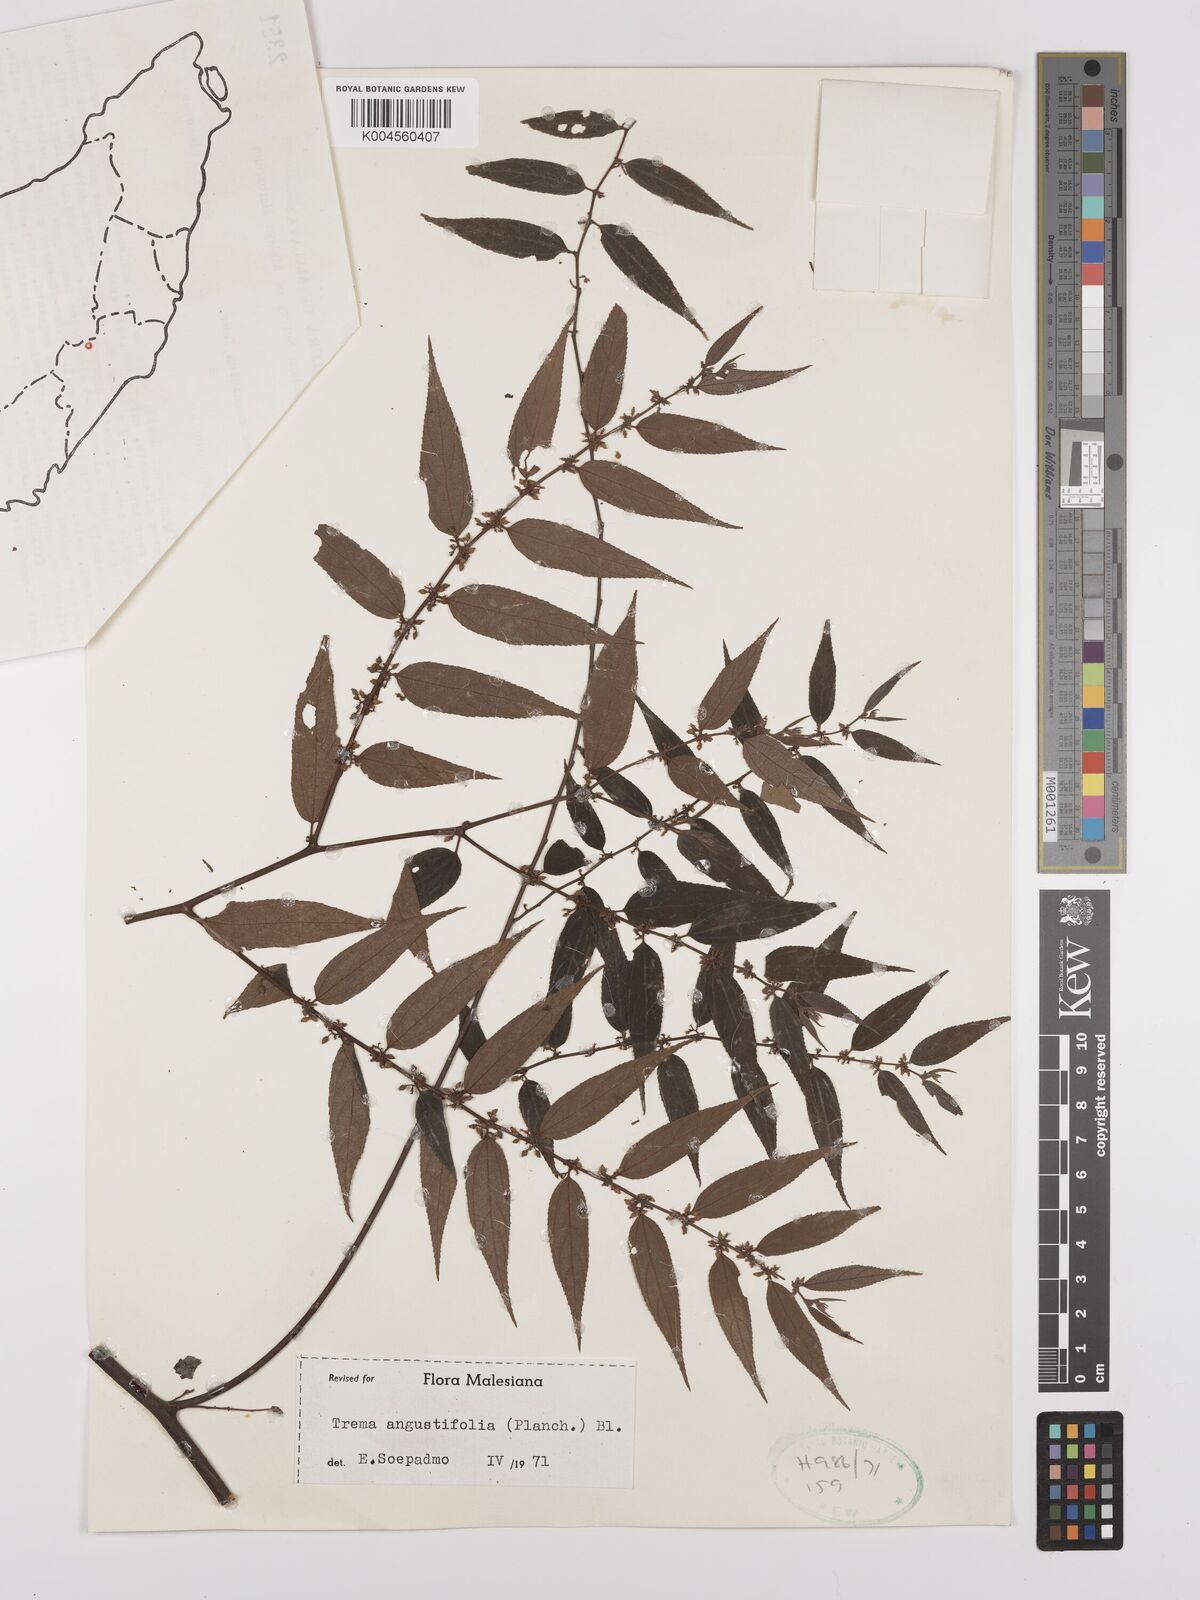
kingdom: Plantae
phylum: Tracheophyta
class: Magnoliopsida
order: Rosales
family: Cannabaceae
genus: Trema
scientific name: Trema angustifolium
